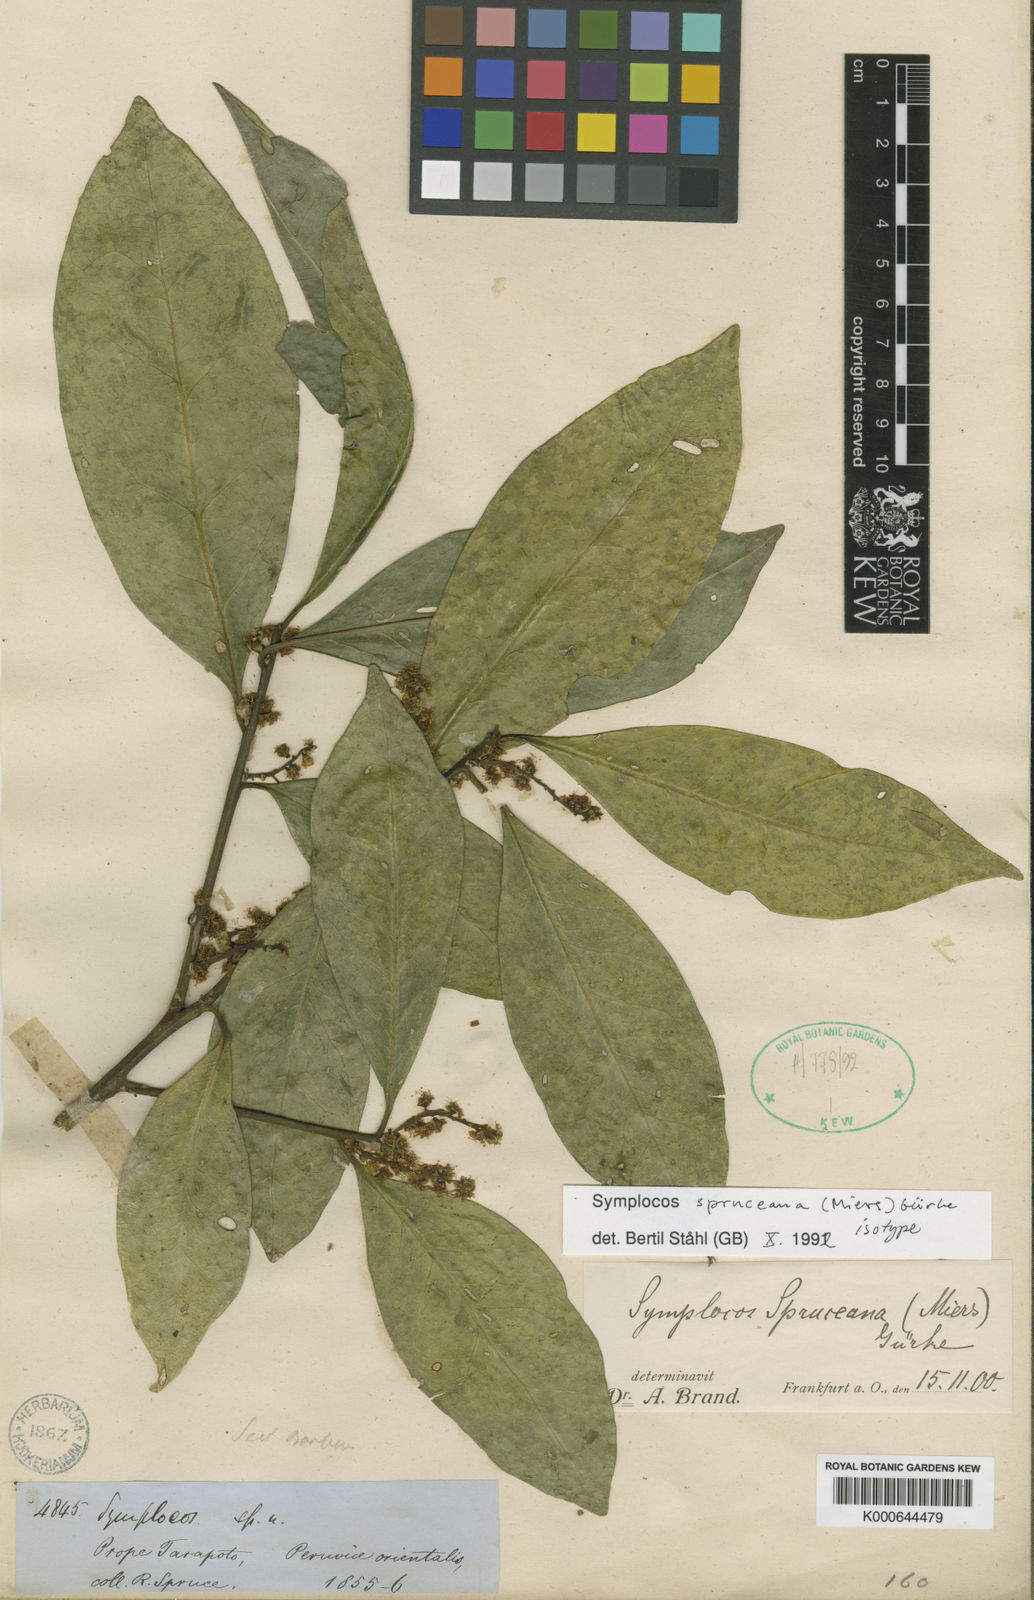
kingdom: Plantae
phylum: Tracheophyta
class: Magnoliopsida
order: Ericales
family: Symplocaceae
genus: Symplocos
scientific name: Symplocos
